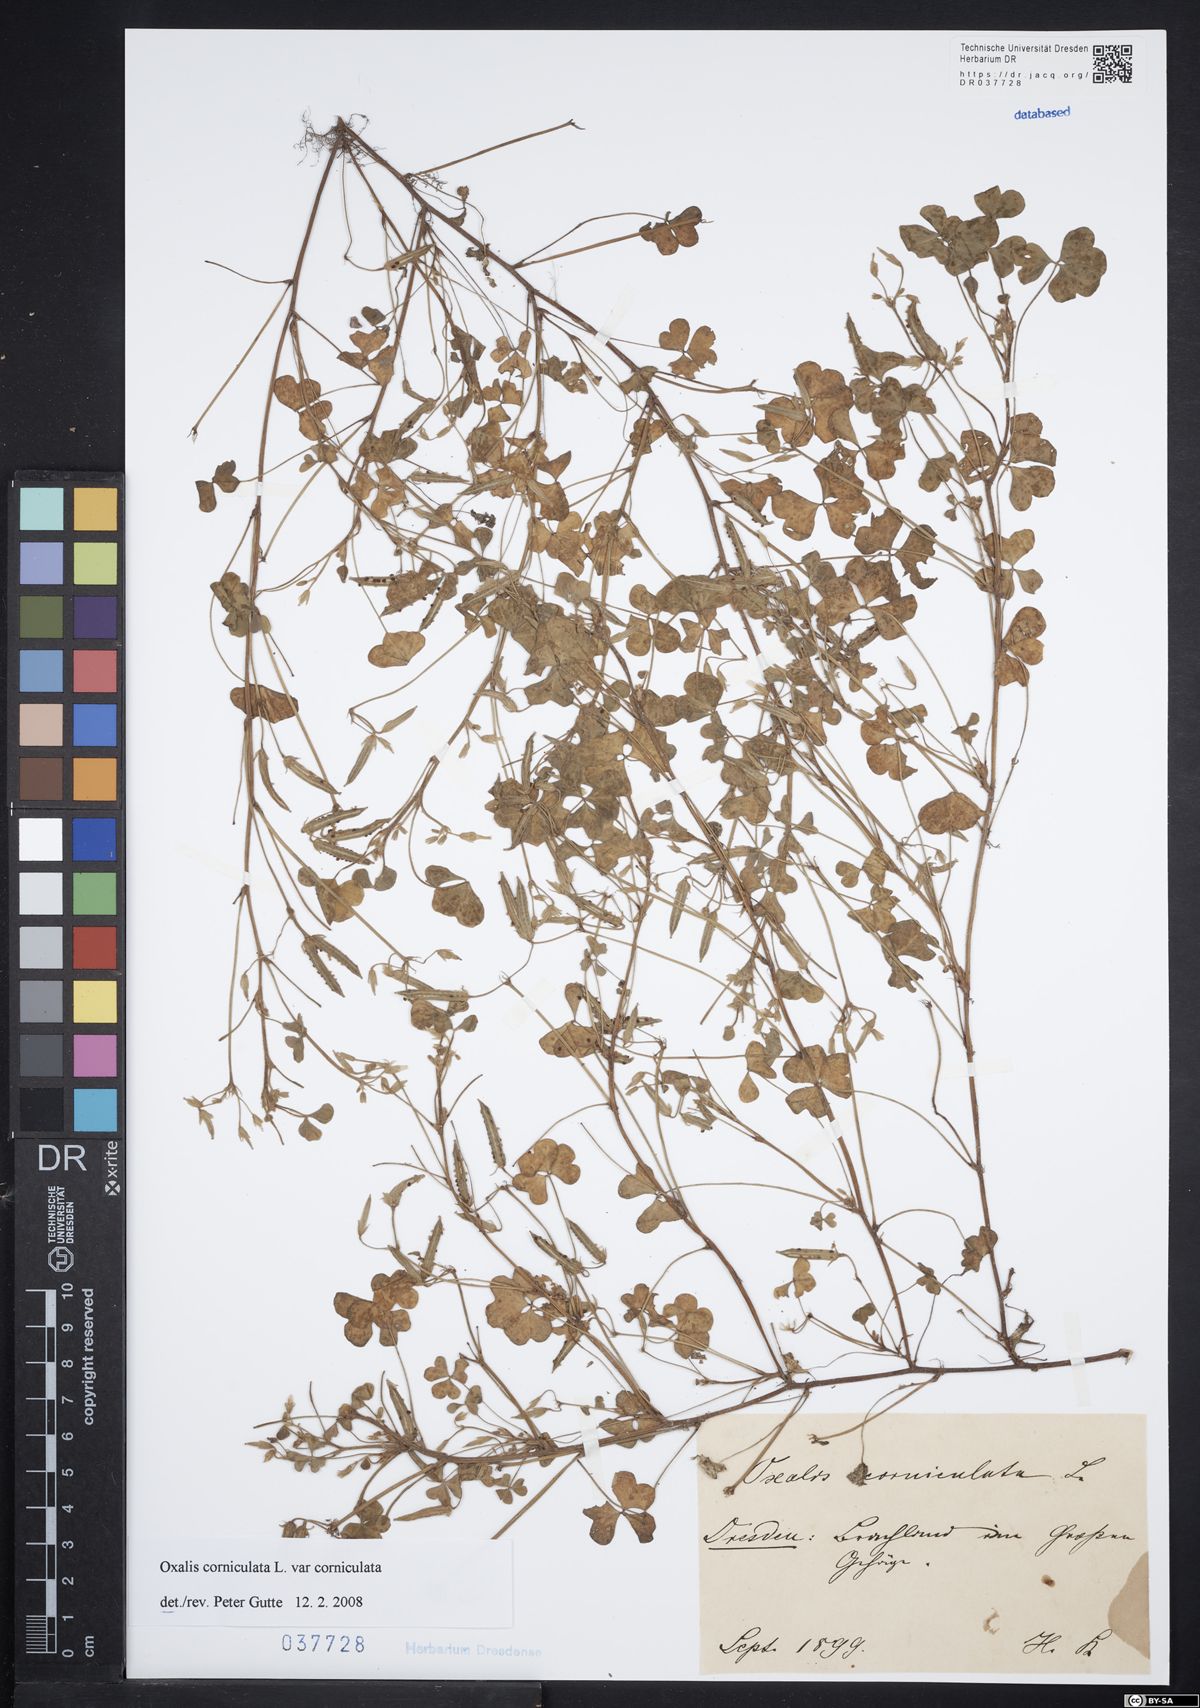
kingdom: Plantae
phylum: Tracheophyta
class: Magnoliopsida
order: Oxalidales
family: Oxalidaceae
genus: Oxalis
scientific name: Oxalis corniculata
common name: Procumbent yellow-sorrel
